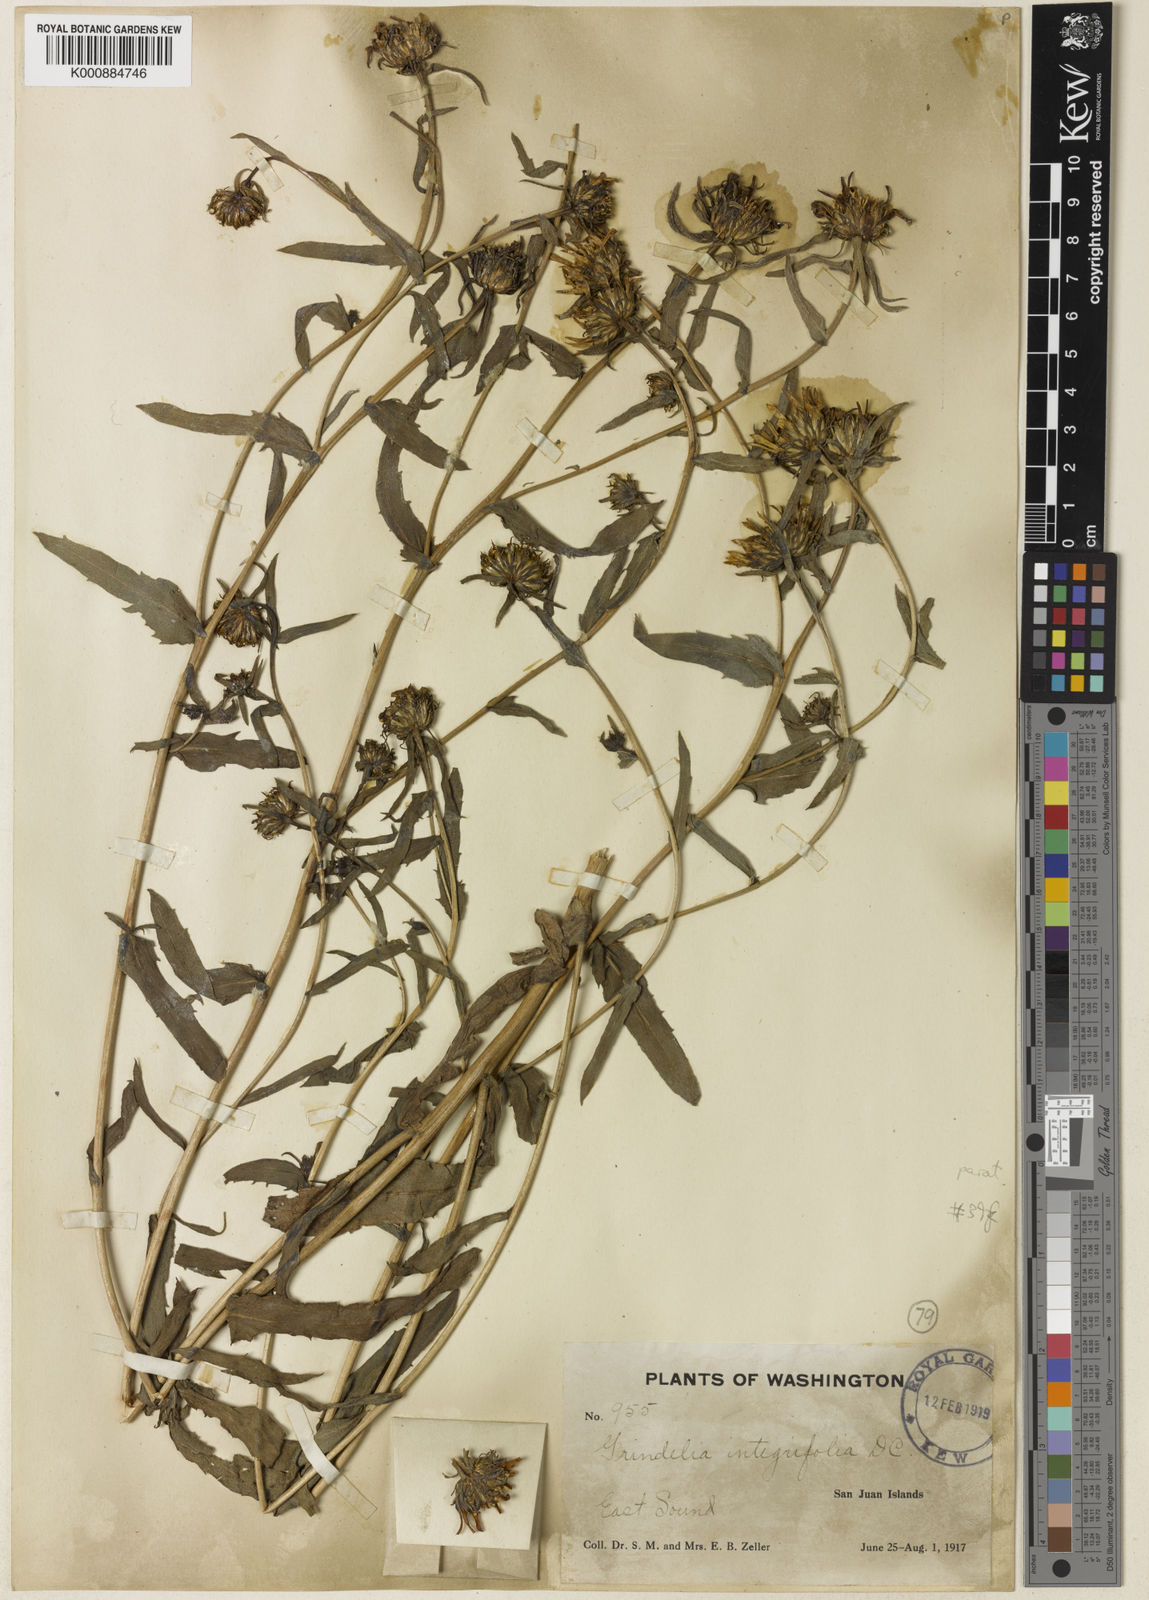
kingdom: Plantae
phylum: Tracheophyta
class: Magnoliopsida
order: Asterales
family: Asteraceae
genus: Grindelia
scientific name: Grindelia hirsutula
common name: Hairy gumweed
